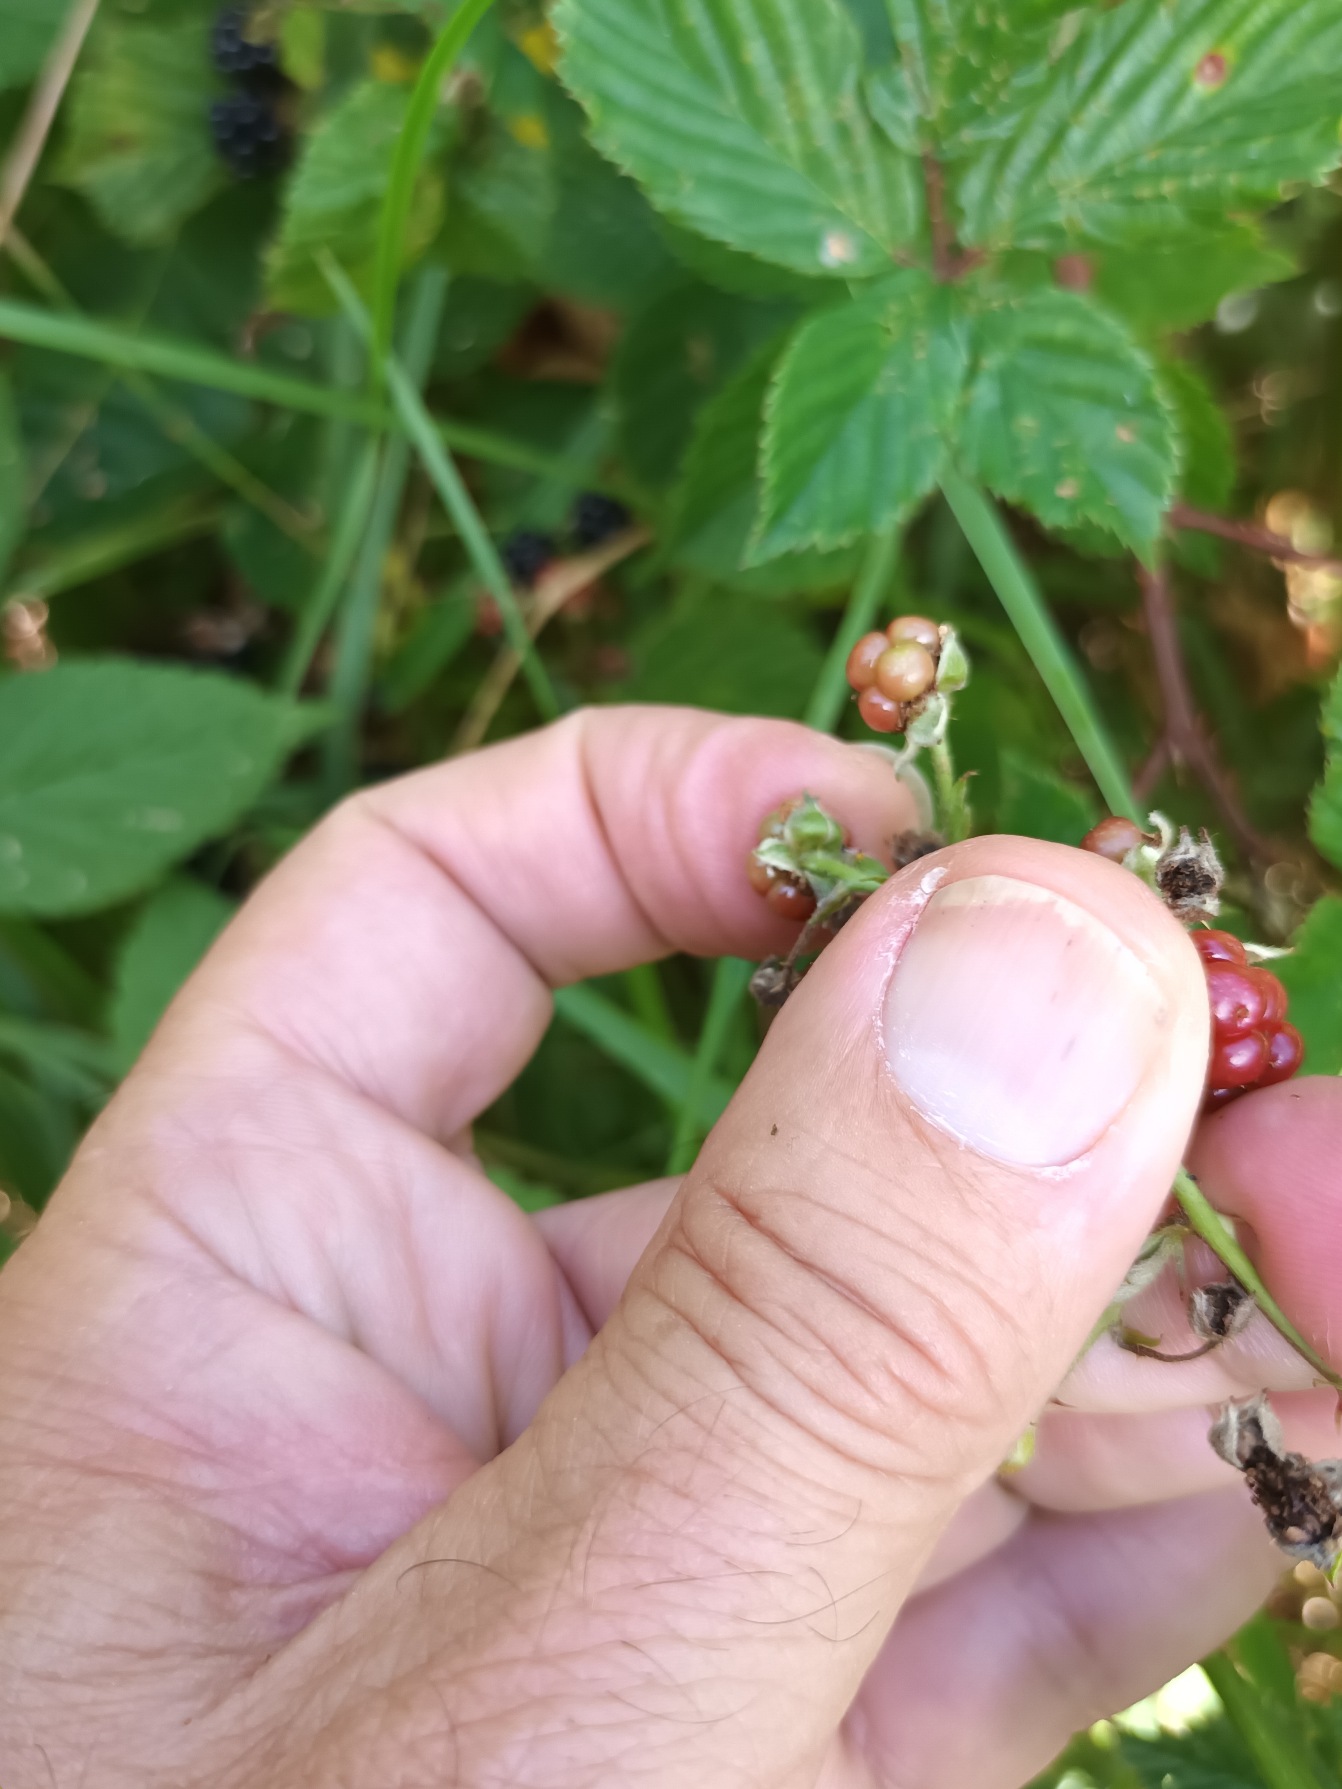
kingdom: Plantae
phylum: Tracheophyta
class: Magnoliopsida
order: Rosales
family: Rosaceae
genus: Rubus
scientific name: Rubus plicatus
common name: Almindelig brombær
